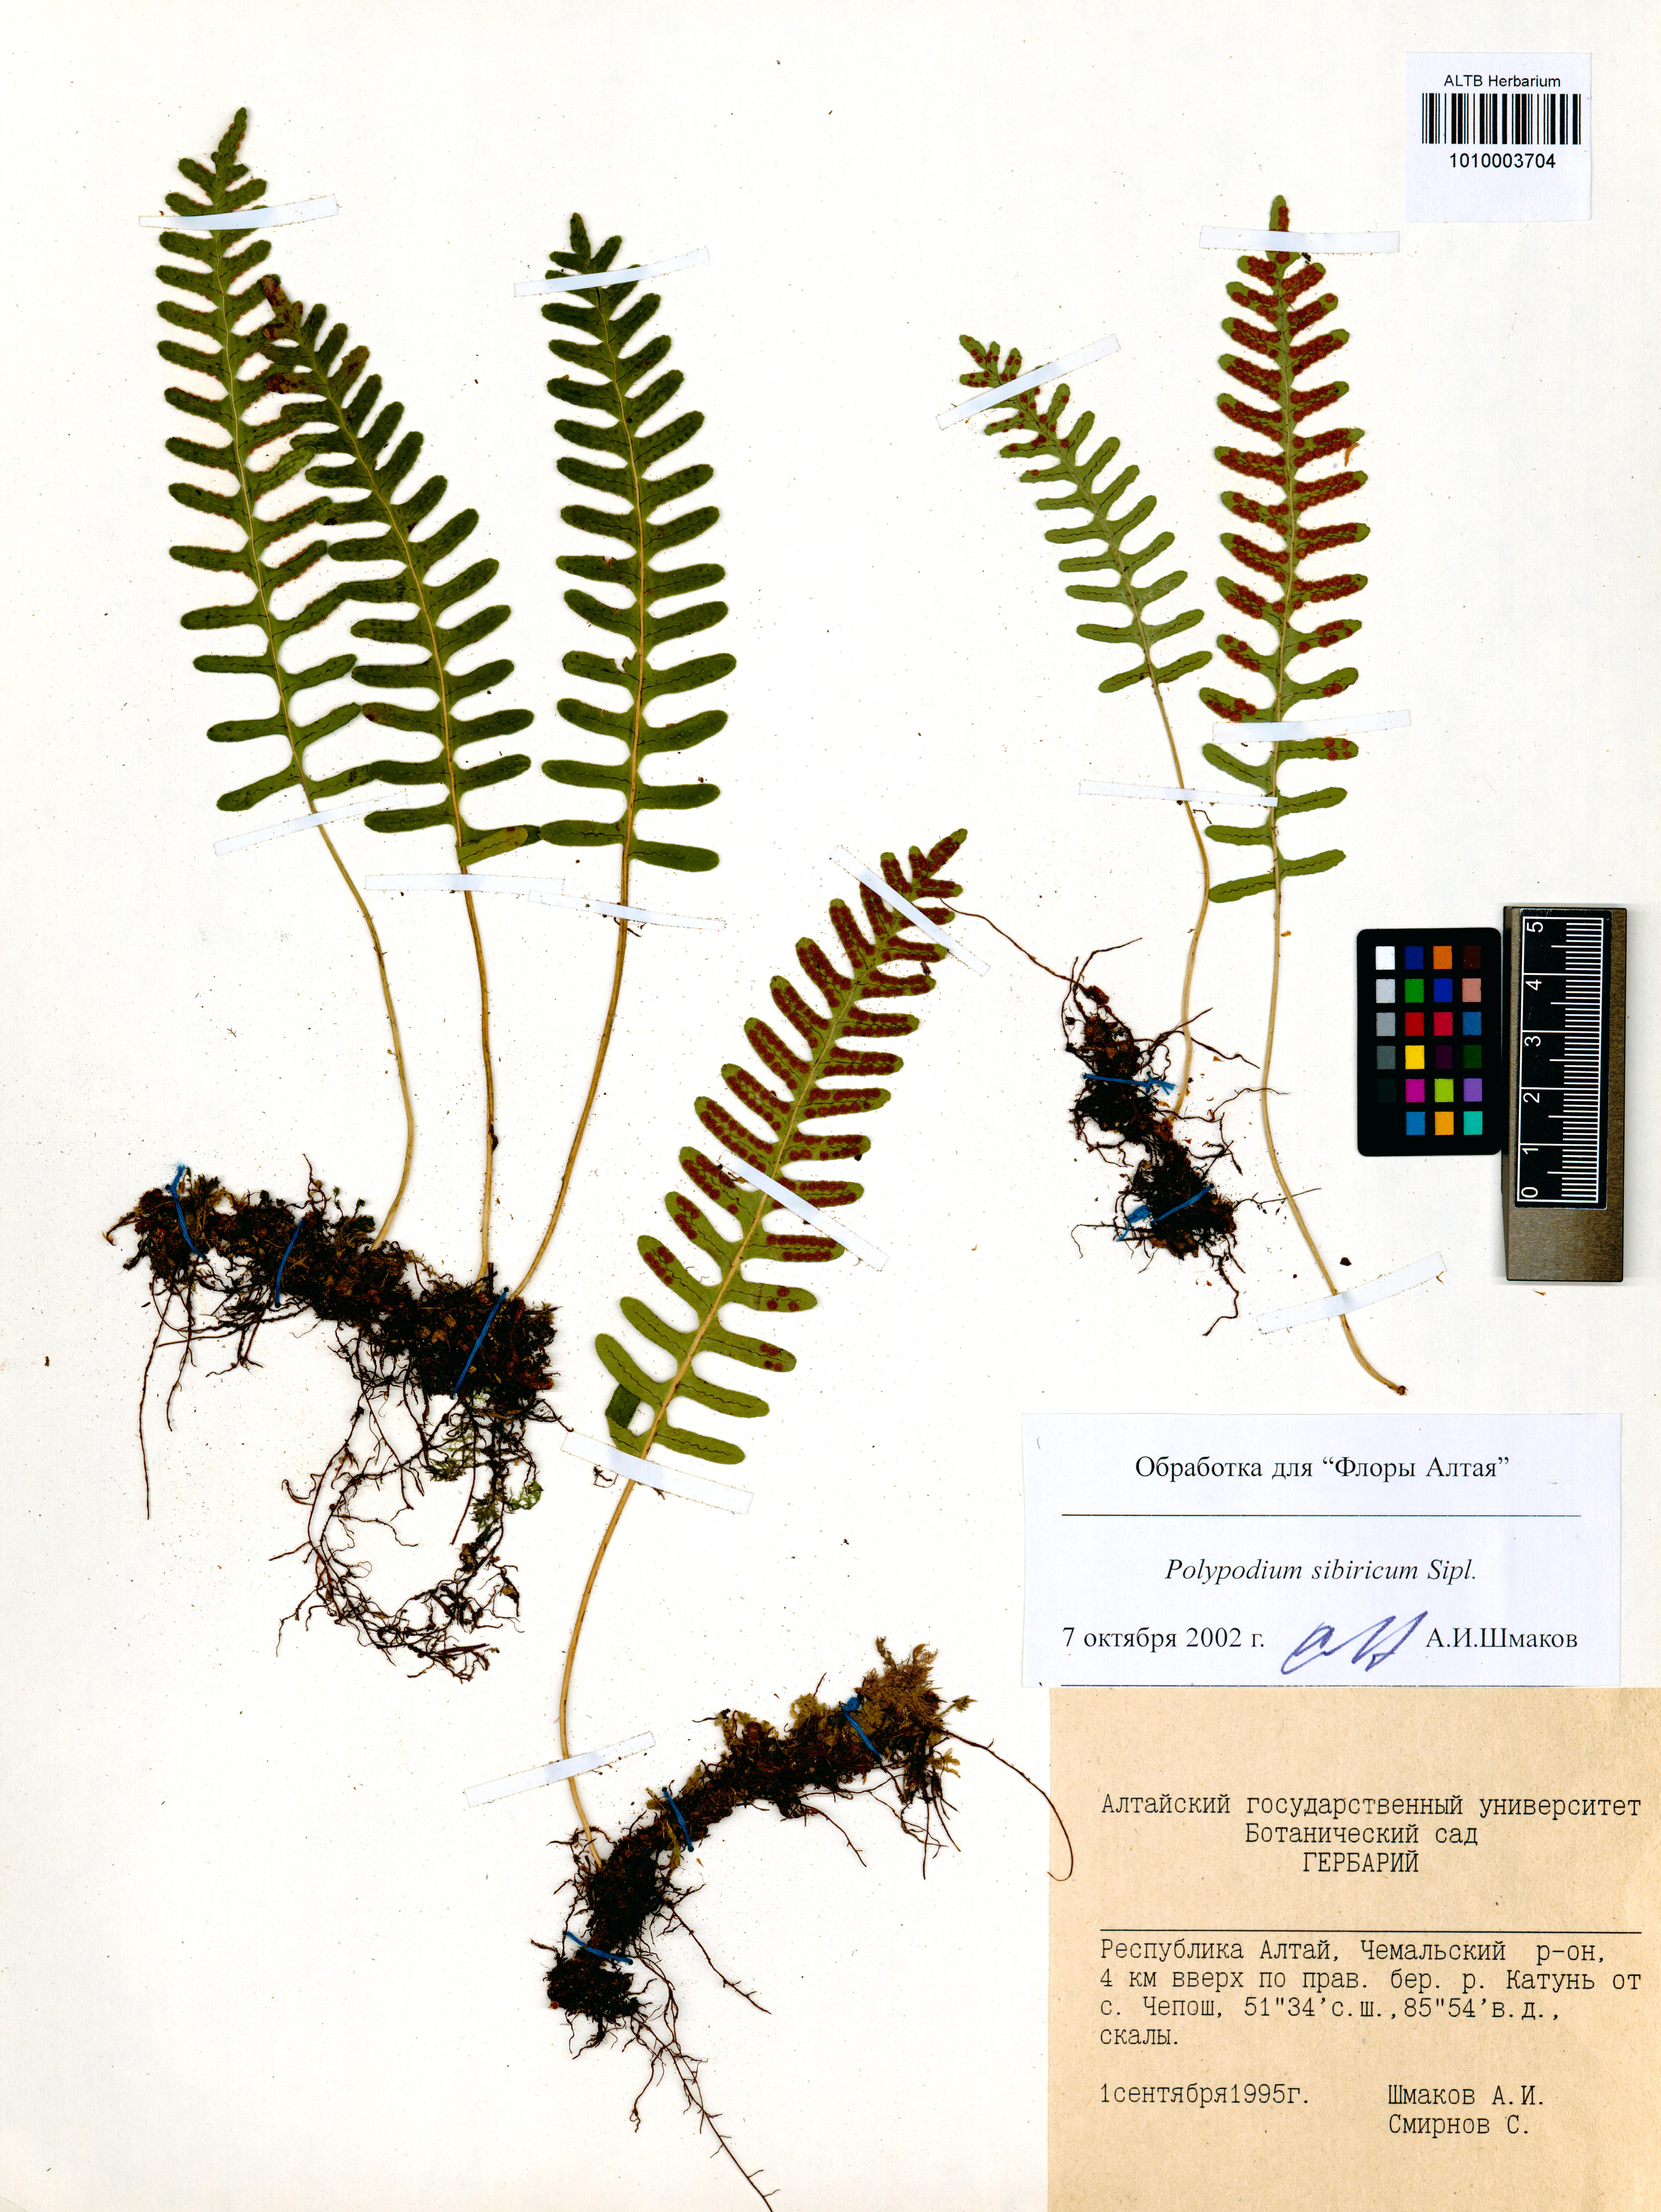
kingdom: Plantae
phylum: Tracheophyta
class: Polypodiopsida
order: Polypodiales
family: Polypodiaceae
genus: Polypodium
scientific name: Polypodium sibiricum
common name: Siberian polypody
